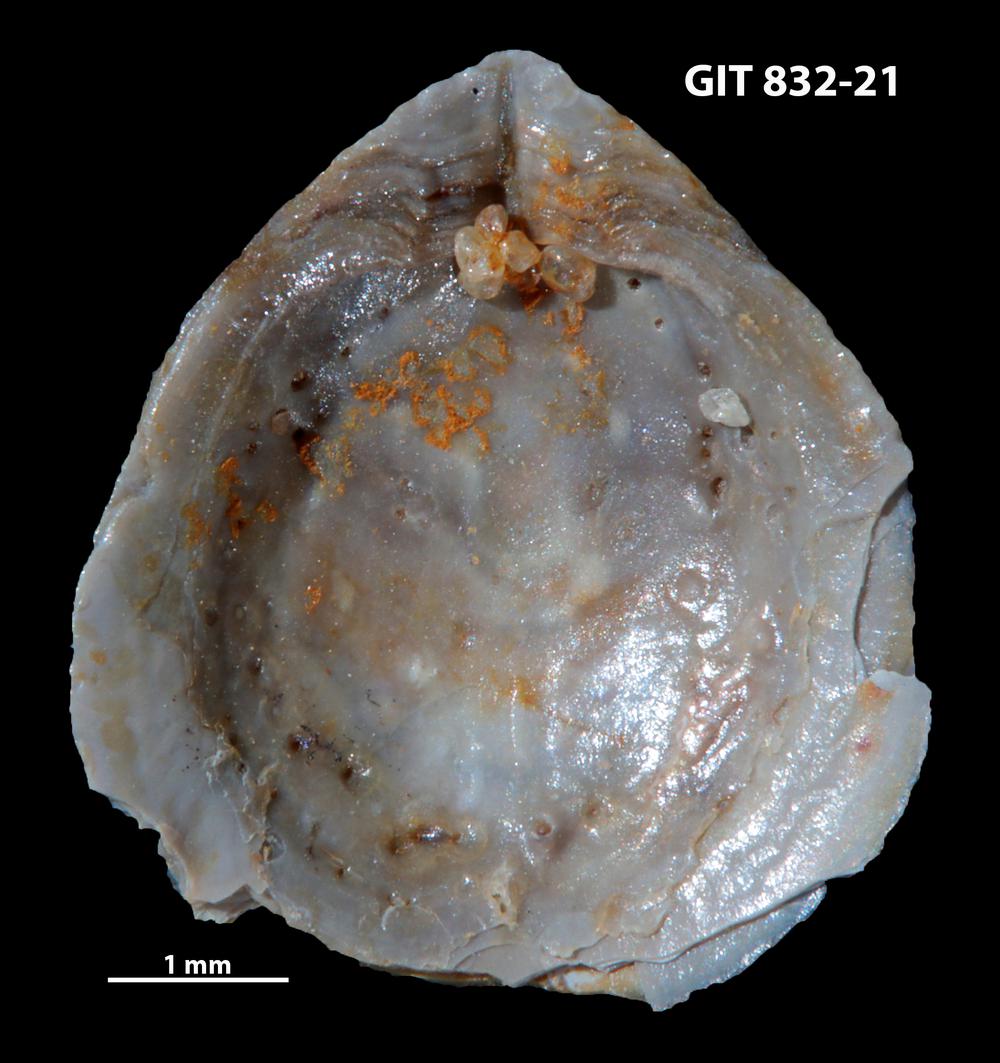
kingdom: Animalia
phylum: Brachiopoda
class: Lingulata
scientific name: Lingulata
